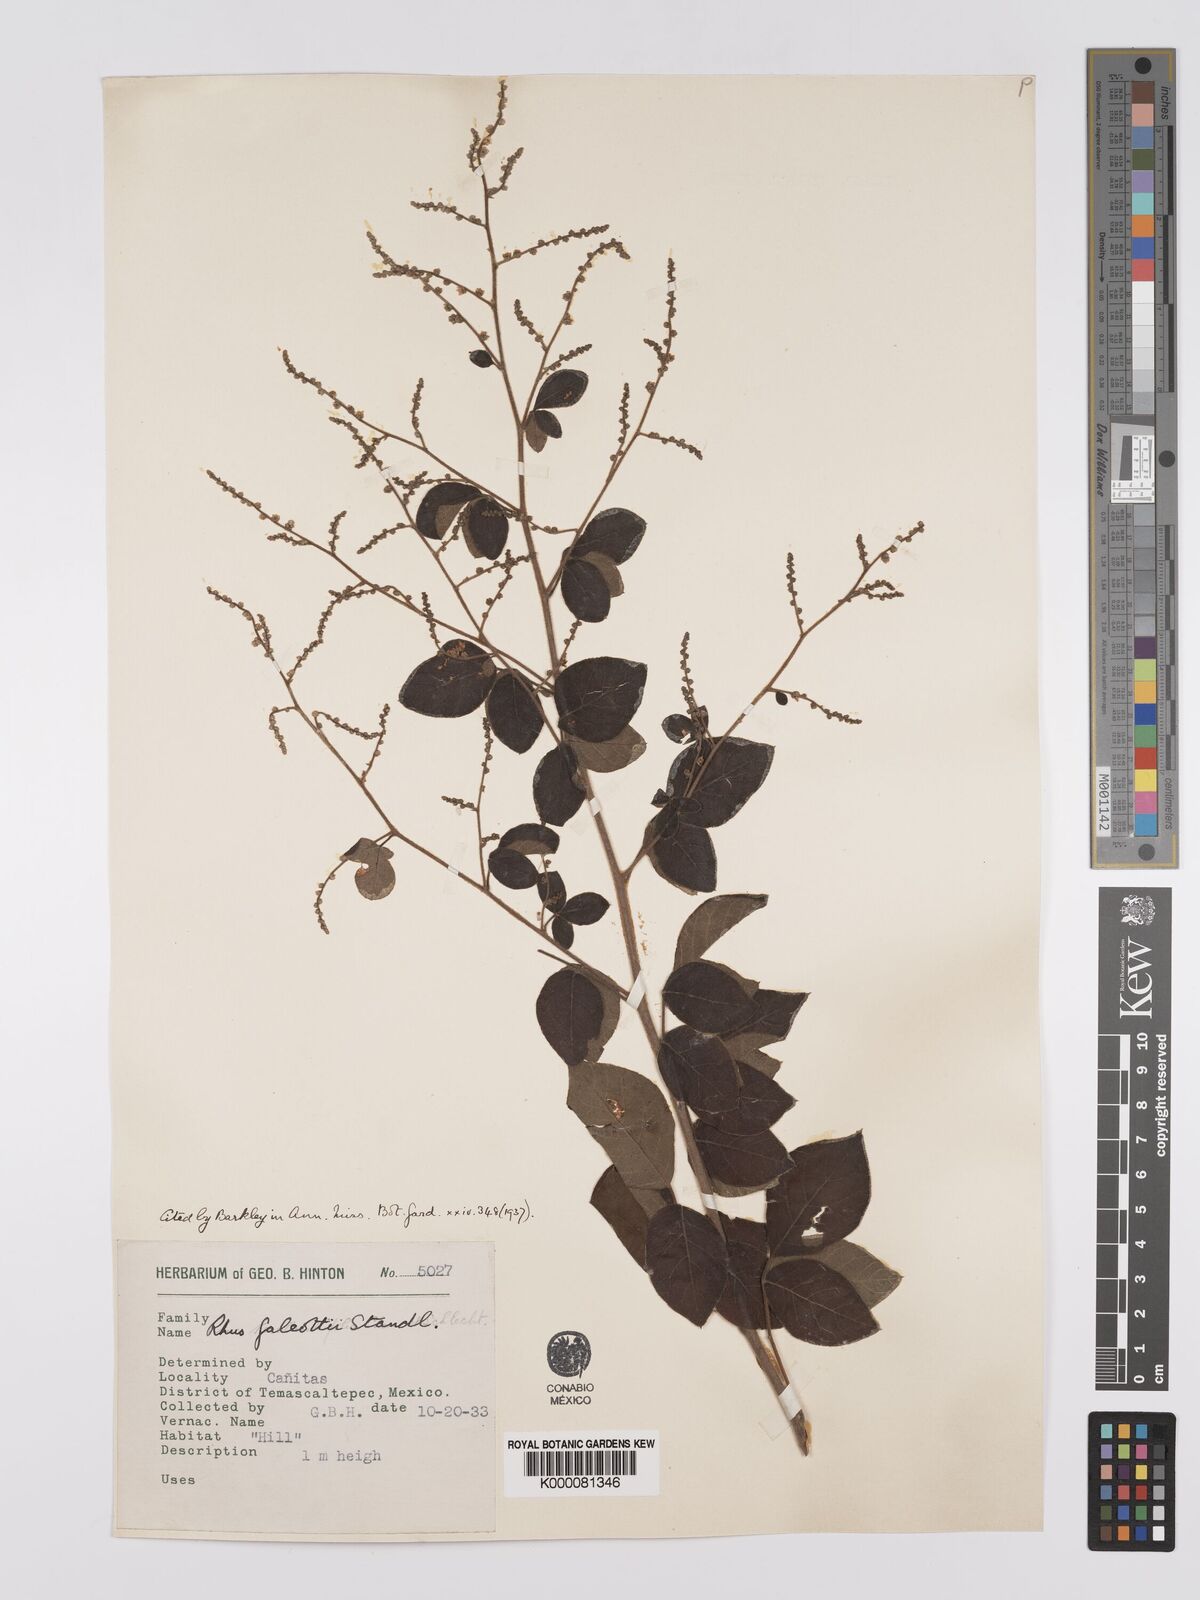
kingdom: Plantae
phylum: Tracheophyta
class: Magnoliopsida
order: Sapindales
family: Anacardiaceae
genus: Rhus
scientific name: Rhus galeottii
